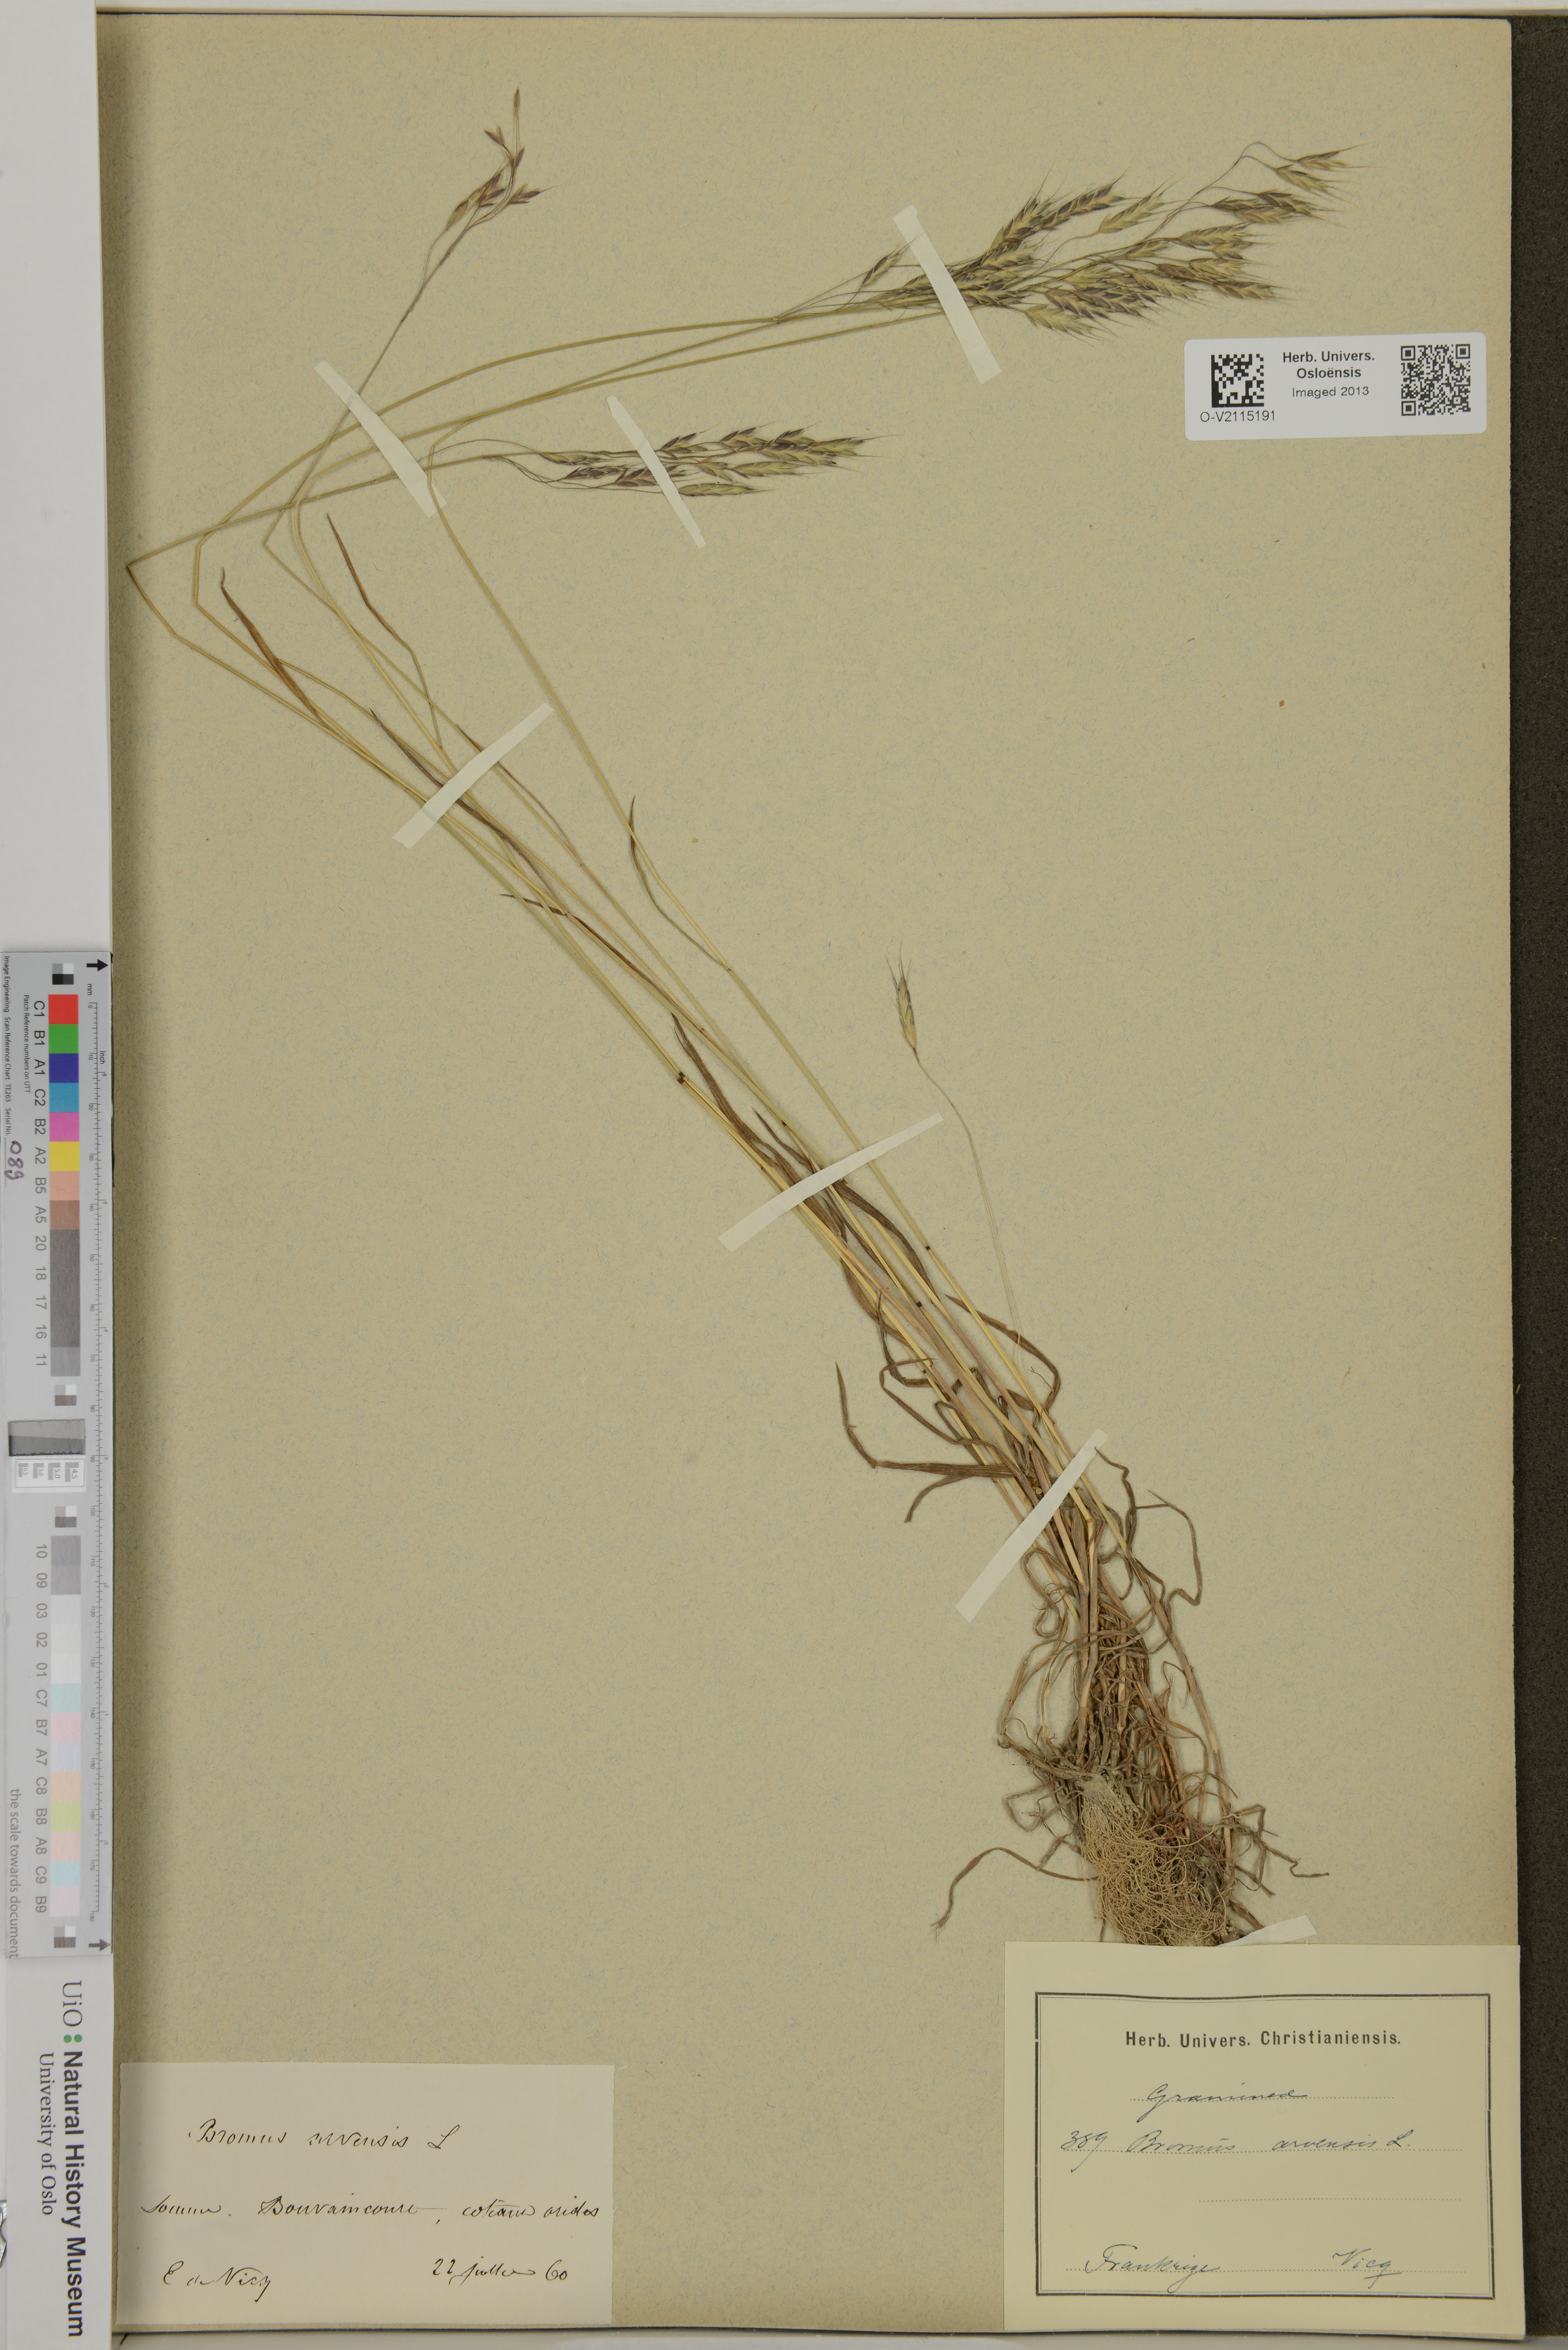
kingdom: Plantae
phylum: Tracheophyta
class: Liliopsida
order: Poales
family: Poaceae
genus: Bromus
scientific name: Bromus arvensis
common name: Field brome
